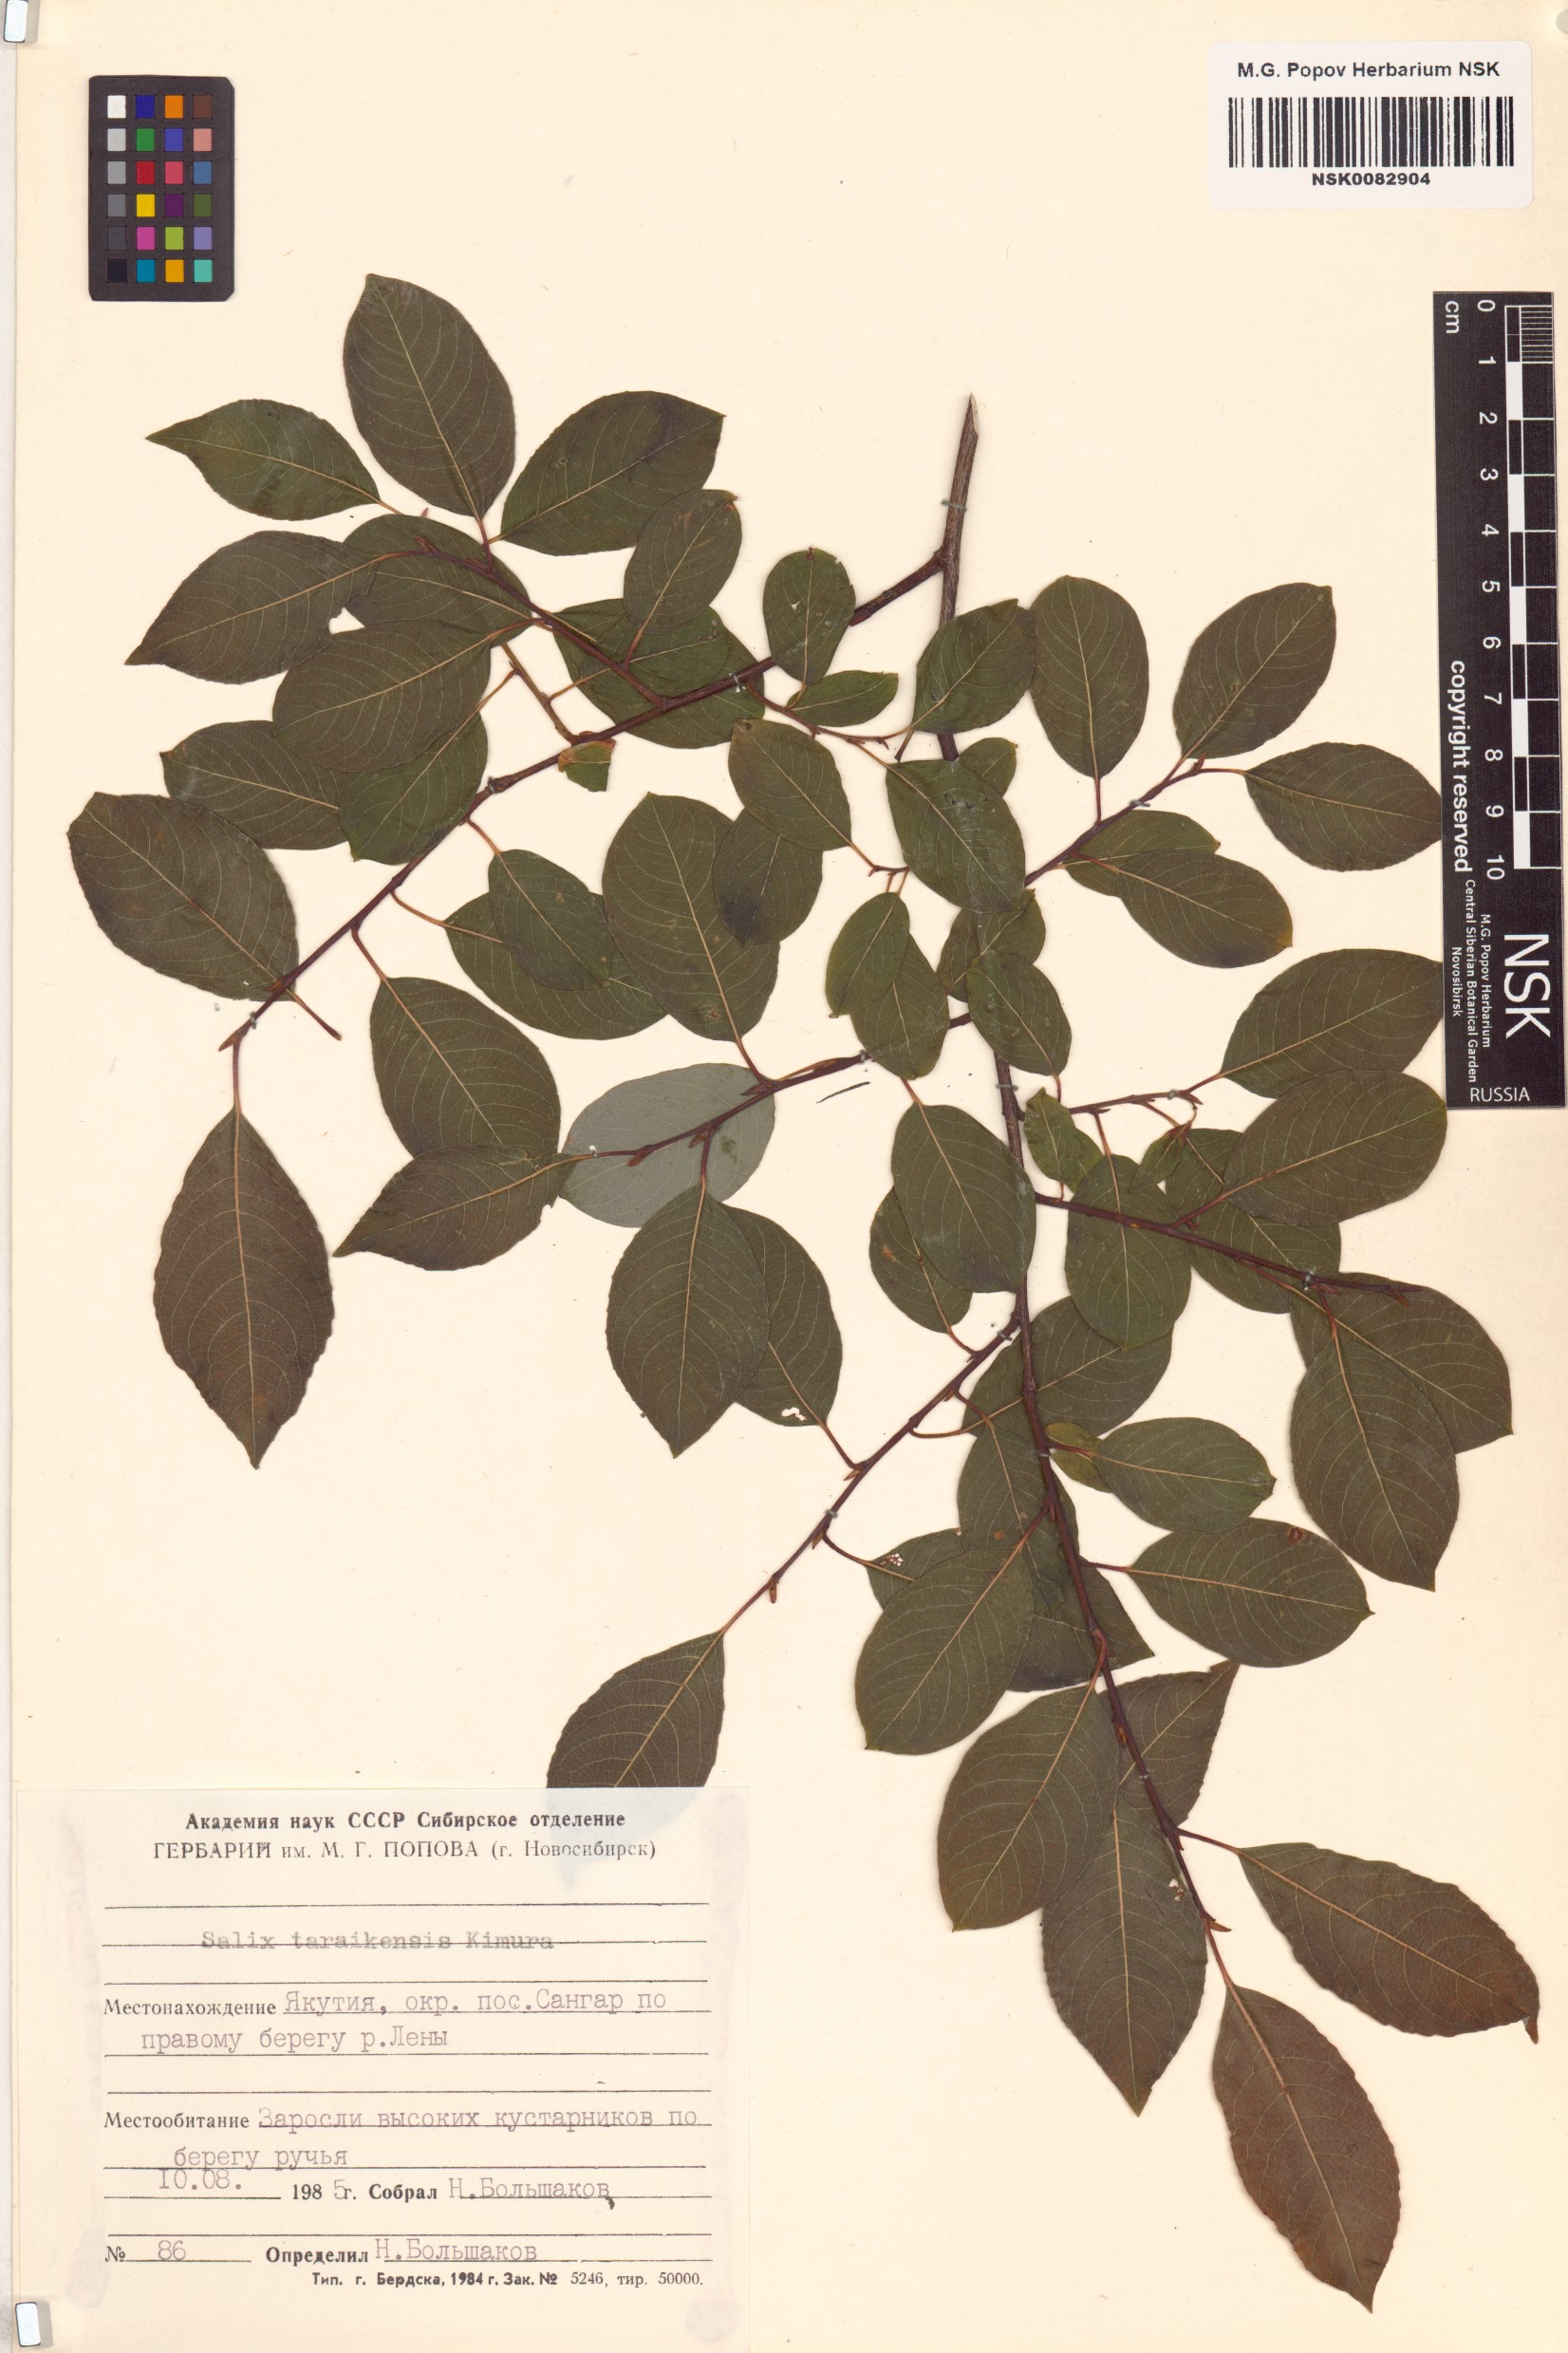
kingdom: Plantae
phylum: Tracheophyta
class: Magnoliopsida
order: Malpighiales
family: Salicaceae
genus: Salix
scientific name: Salix taraikensis
